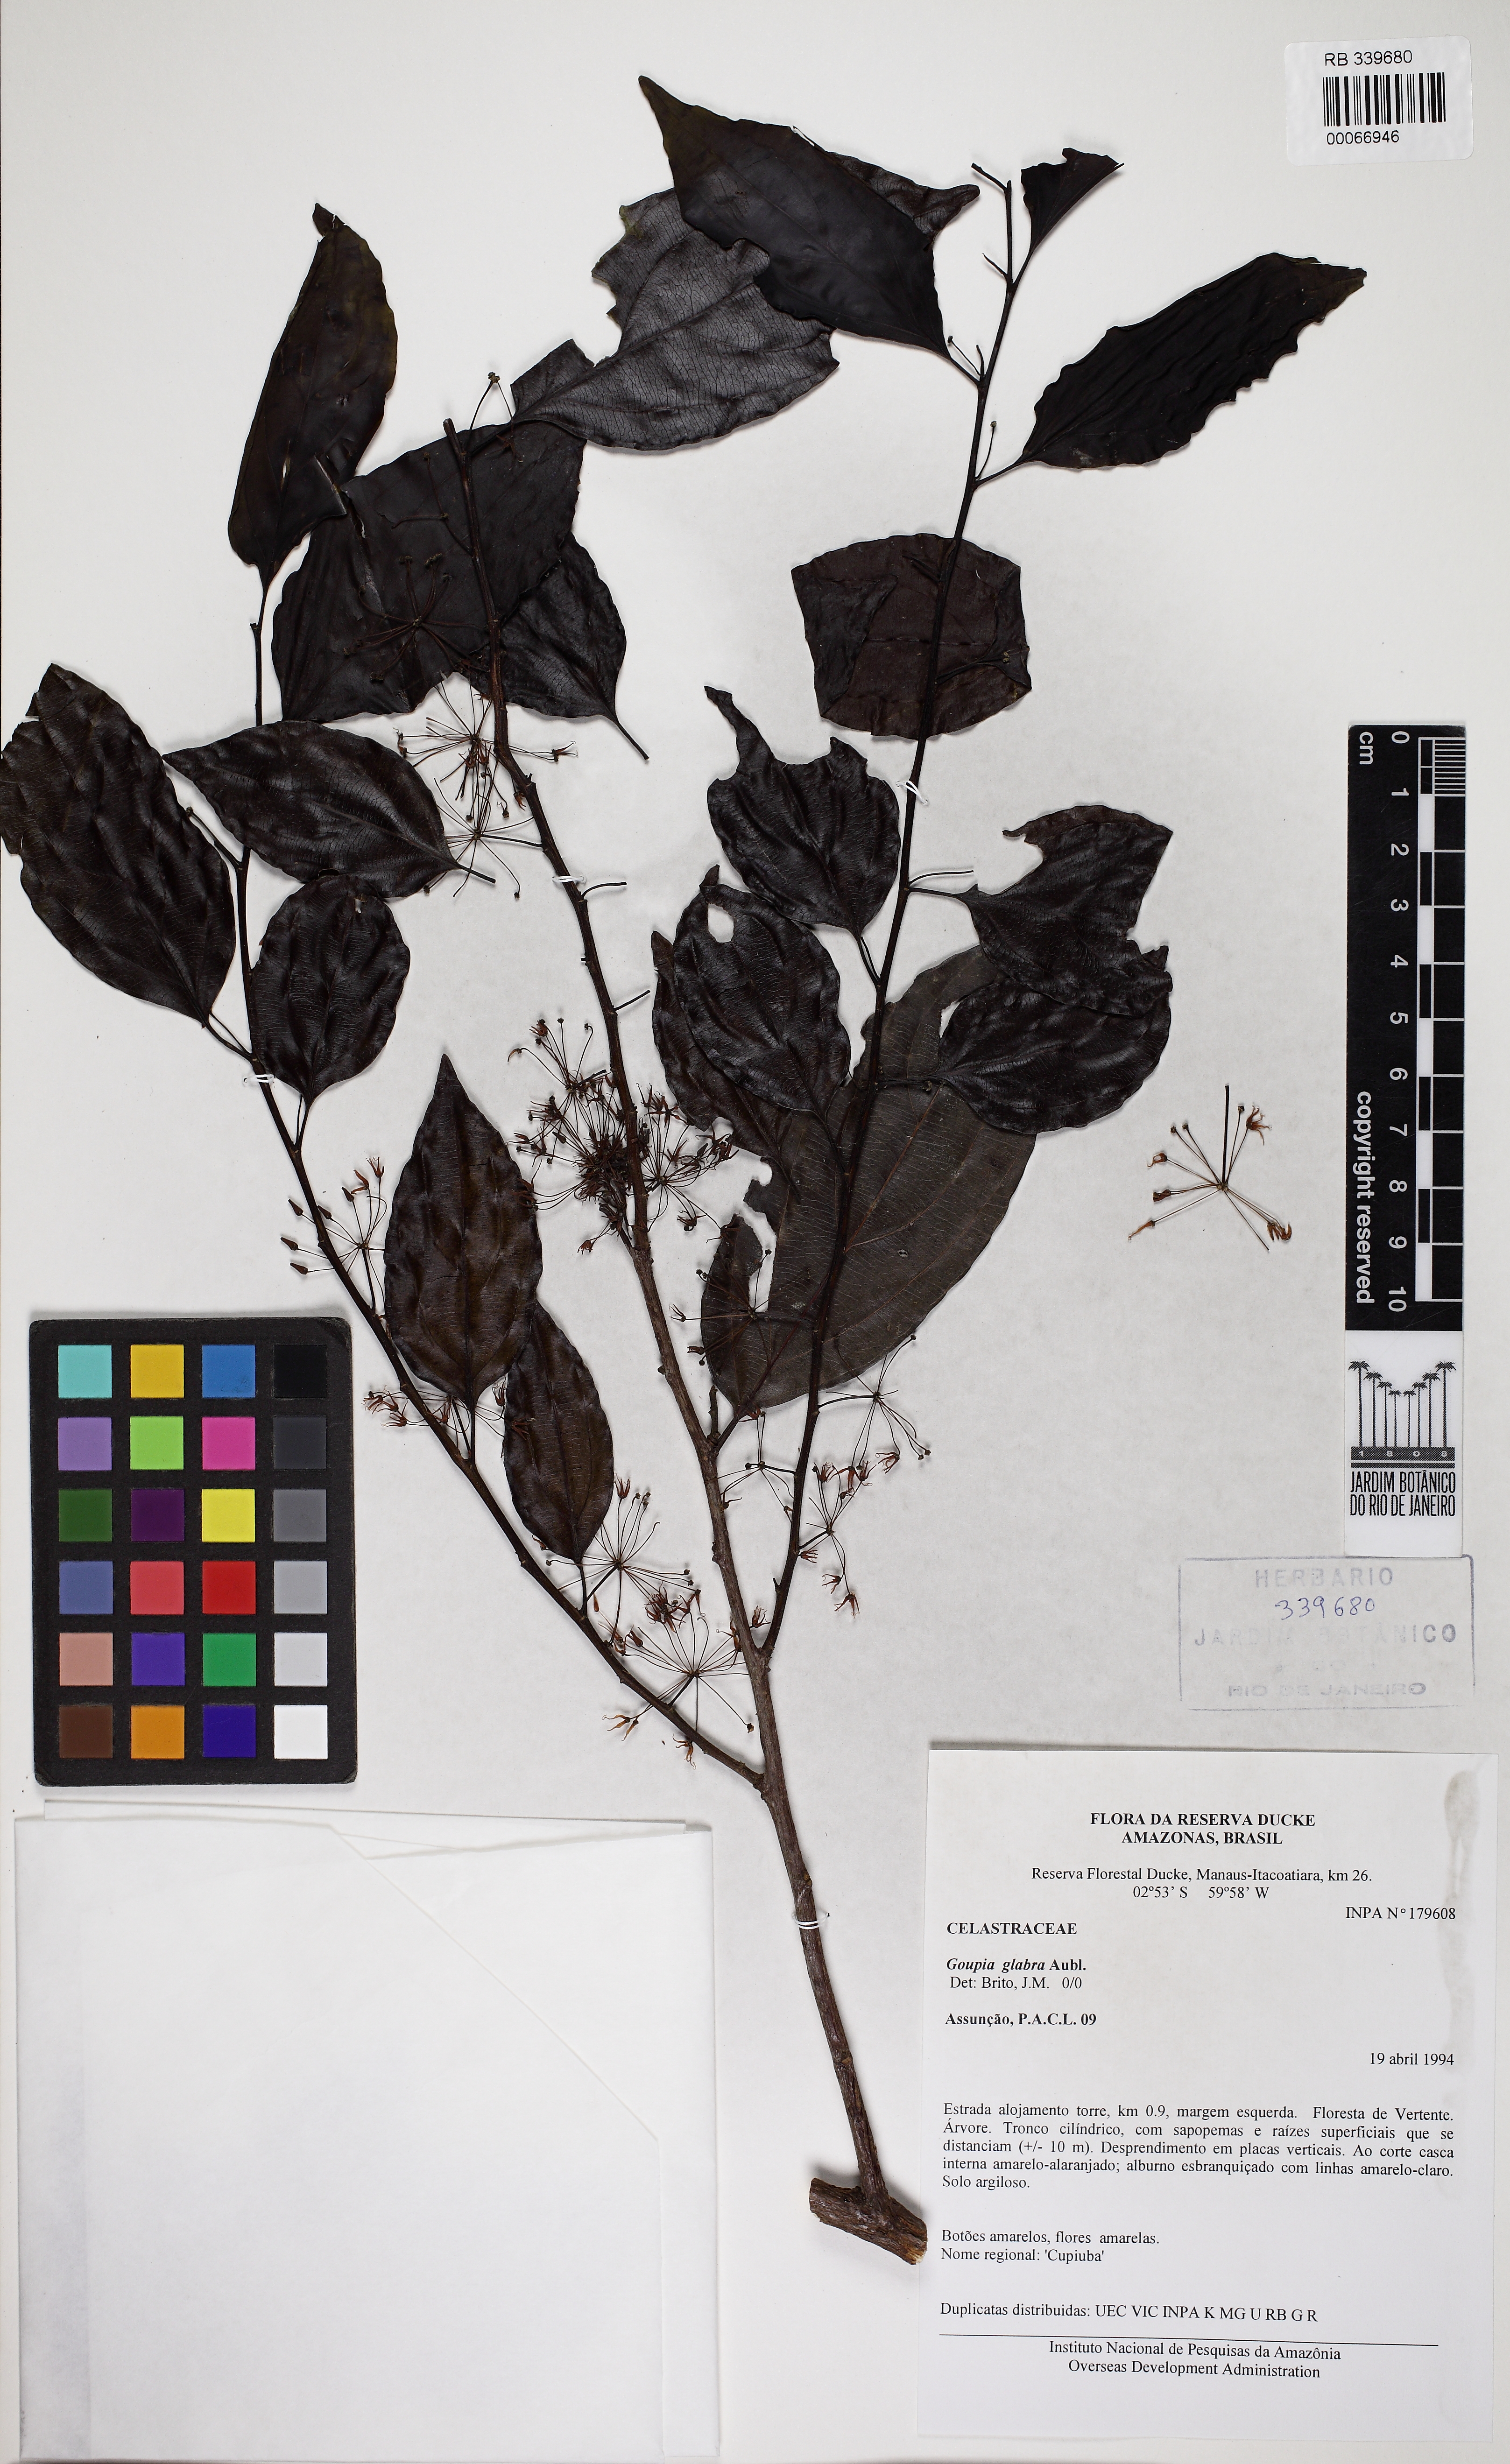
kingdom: Plantae
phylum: Tracheophyta
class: Magnoliopsida
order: Malpighiales
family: Goupiaceae
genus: Goupia
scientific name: Goupia glabra
